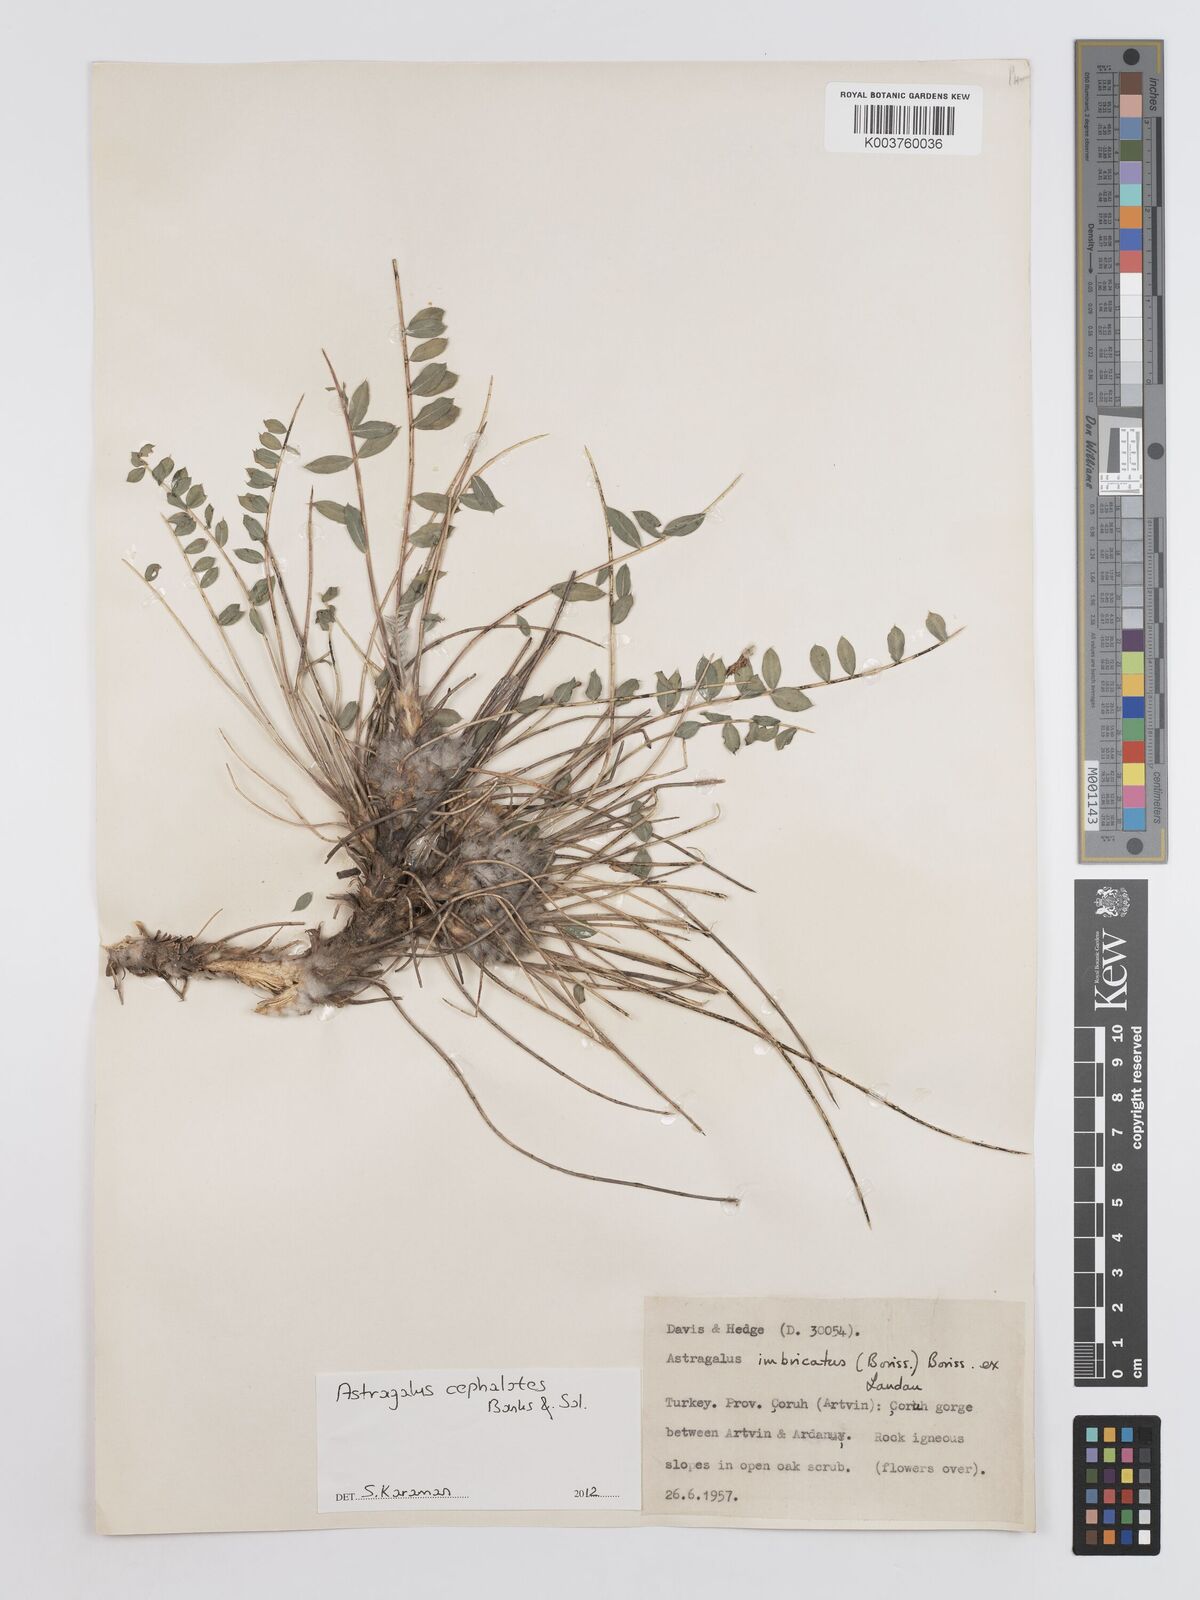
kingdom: Plantae
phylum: Tracheophyta
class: Magnoliopsida
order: Fabales
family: Fabaceae
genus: Astragalus
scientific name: Astragalus cephalotes
